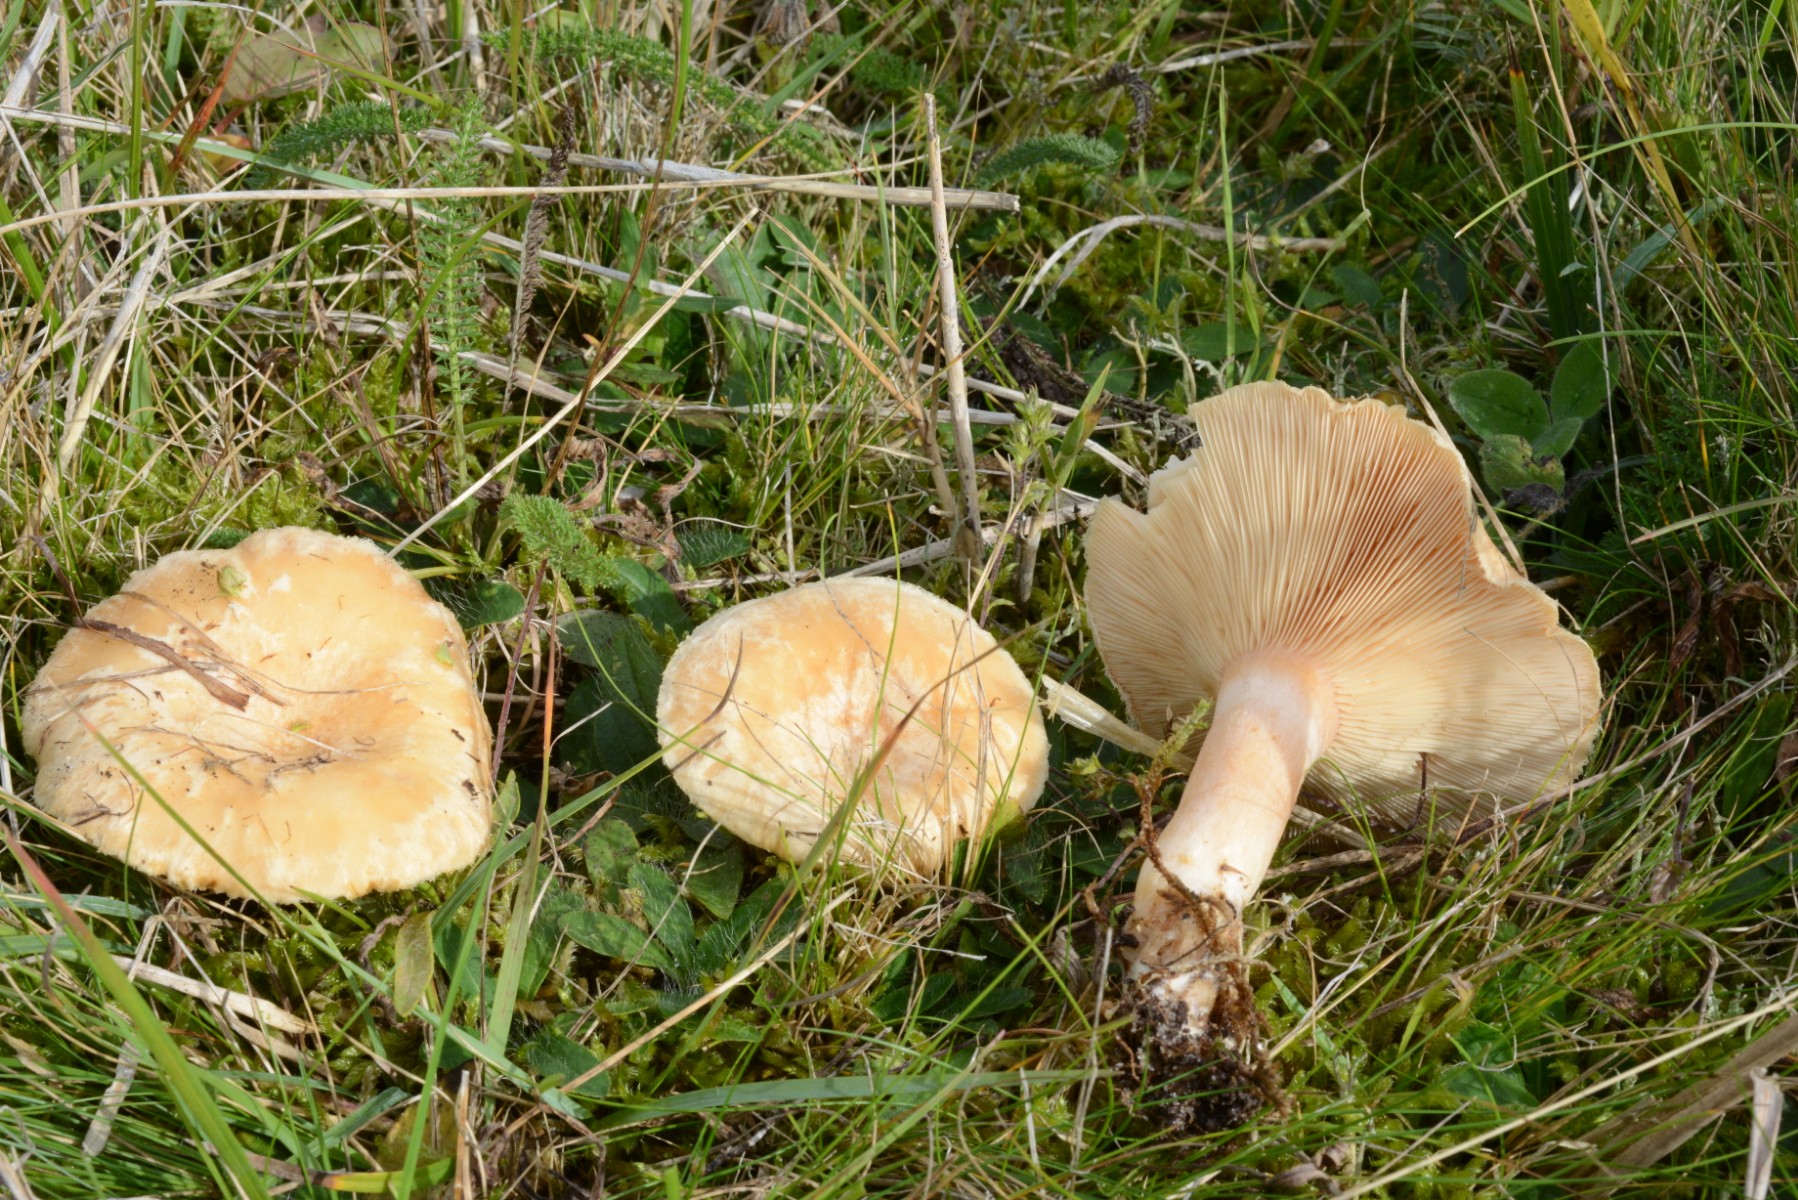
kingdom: Fungi
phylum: Basidiomycota
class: Agaricomycetes
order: Russulales
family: Russulaceae
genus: Lactarius
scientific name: Lactarius pubescens
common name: dunet mælkehat
